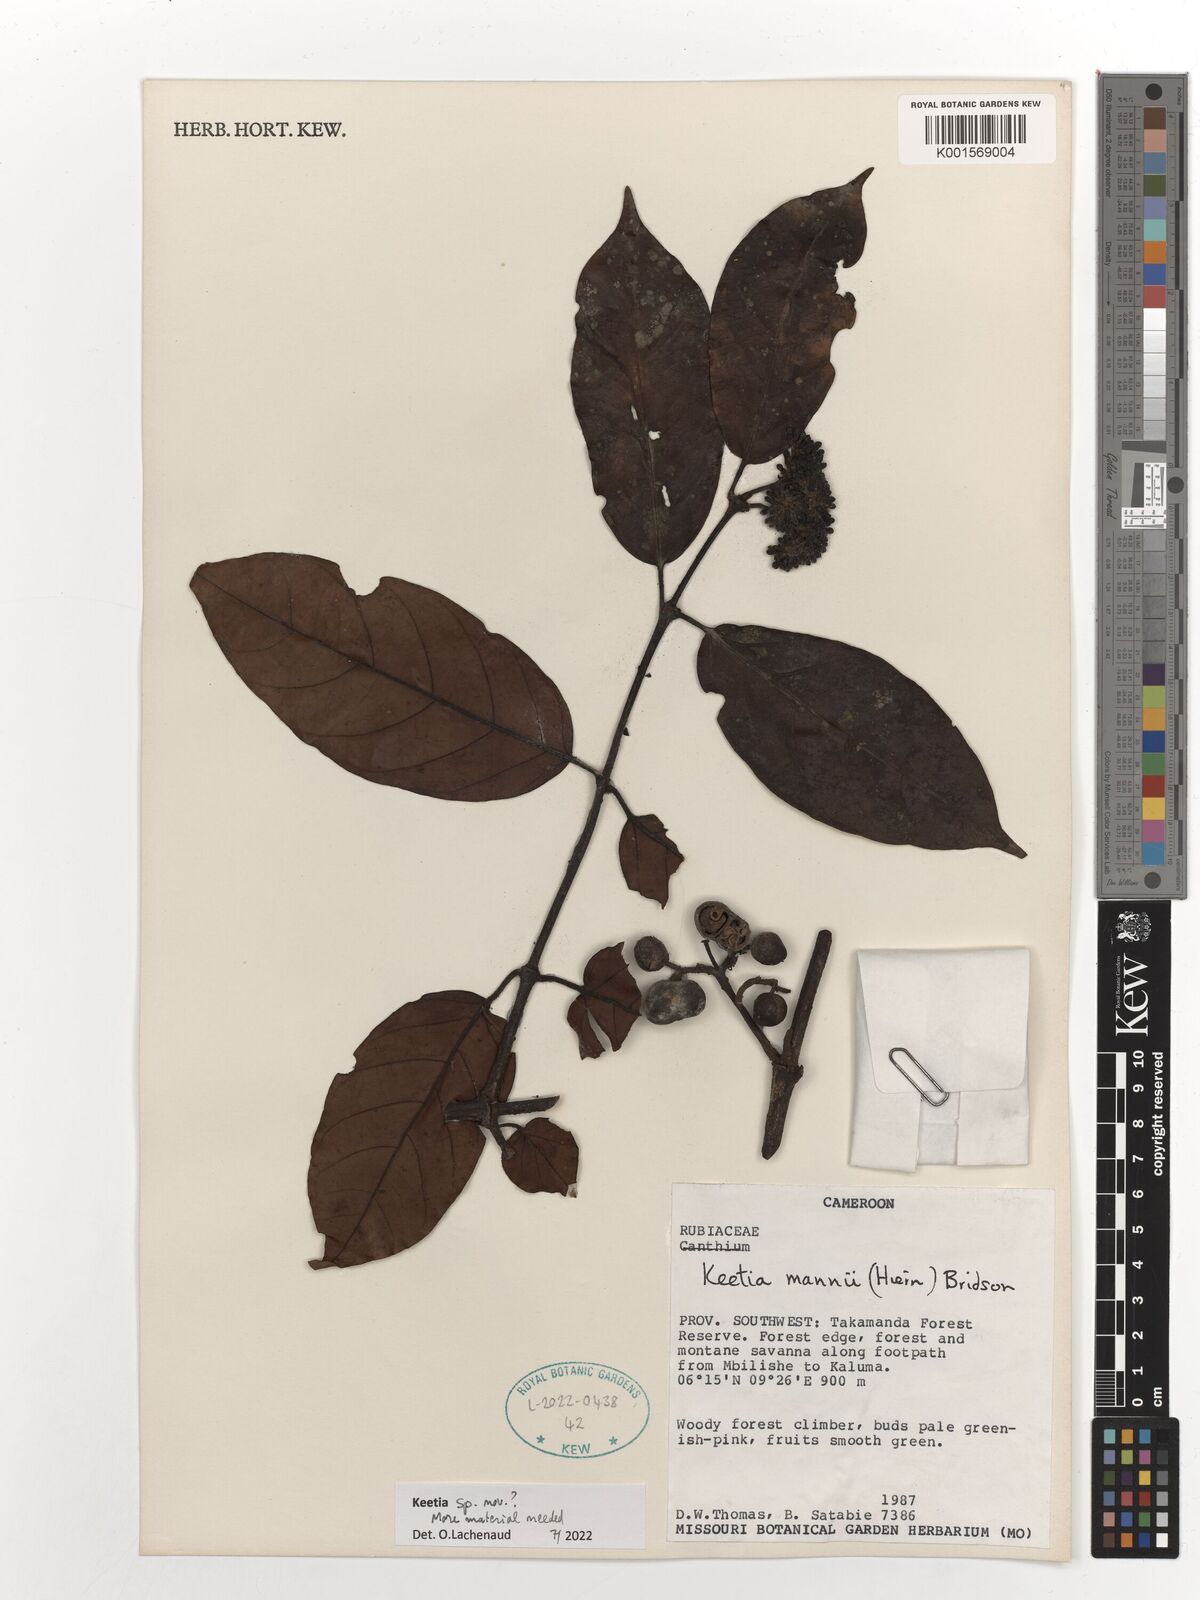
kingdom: Plantae
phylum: Tracheophyta
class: Magnoliopsida
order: Gentianales
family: Rubiaceae
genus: Keetia
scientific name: Keetia
